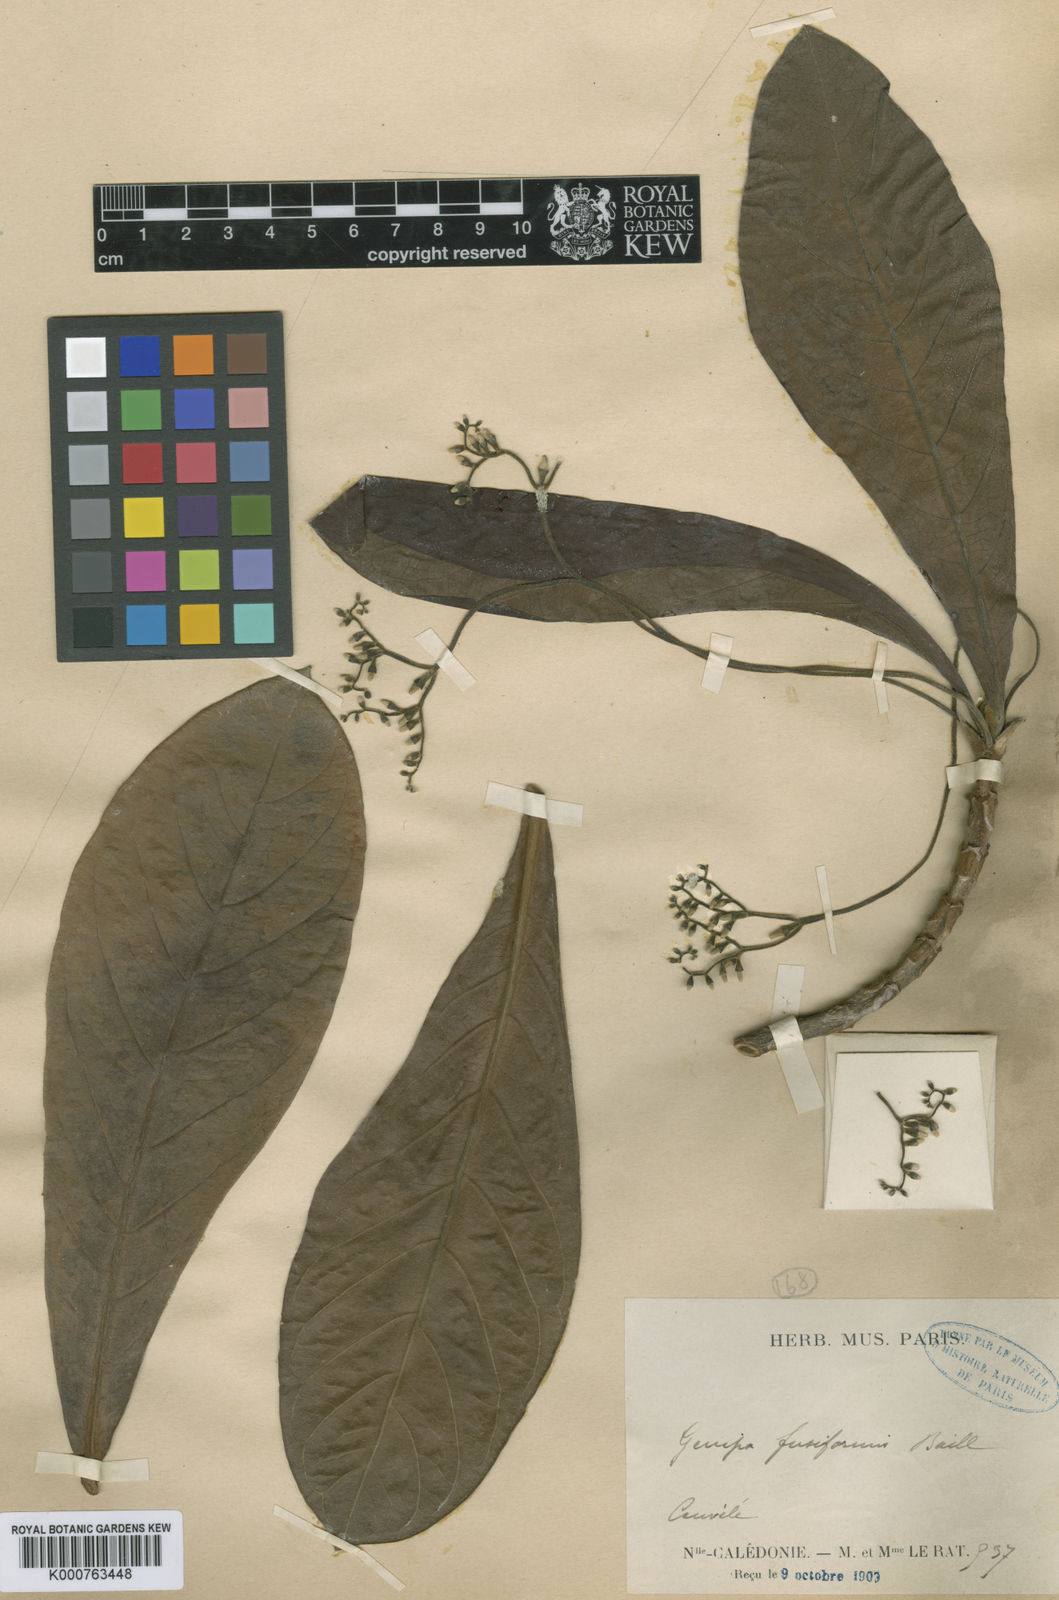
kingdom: Plantae
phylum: Tracheophyta
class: Magnoliopsida
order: Gentianales
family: Rubiaceae
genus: Guettarda
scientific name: Guettarda
